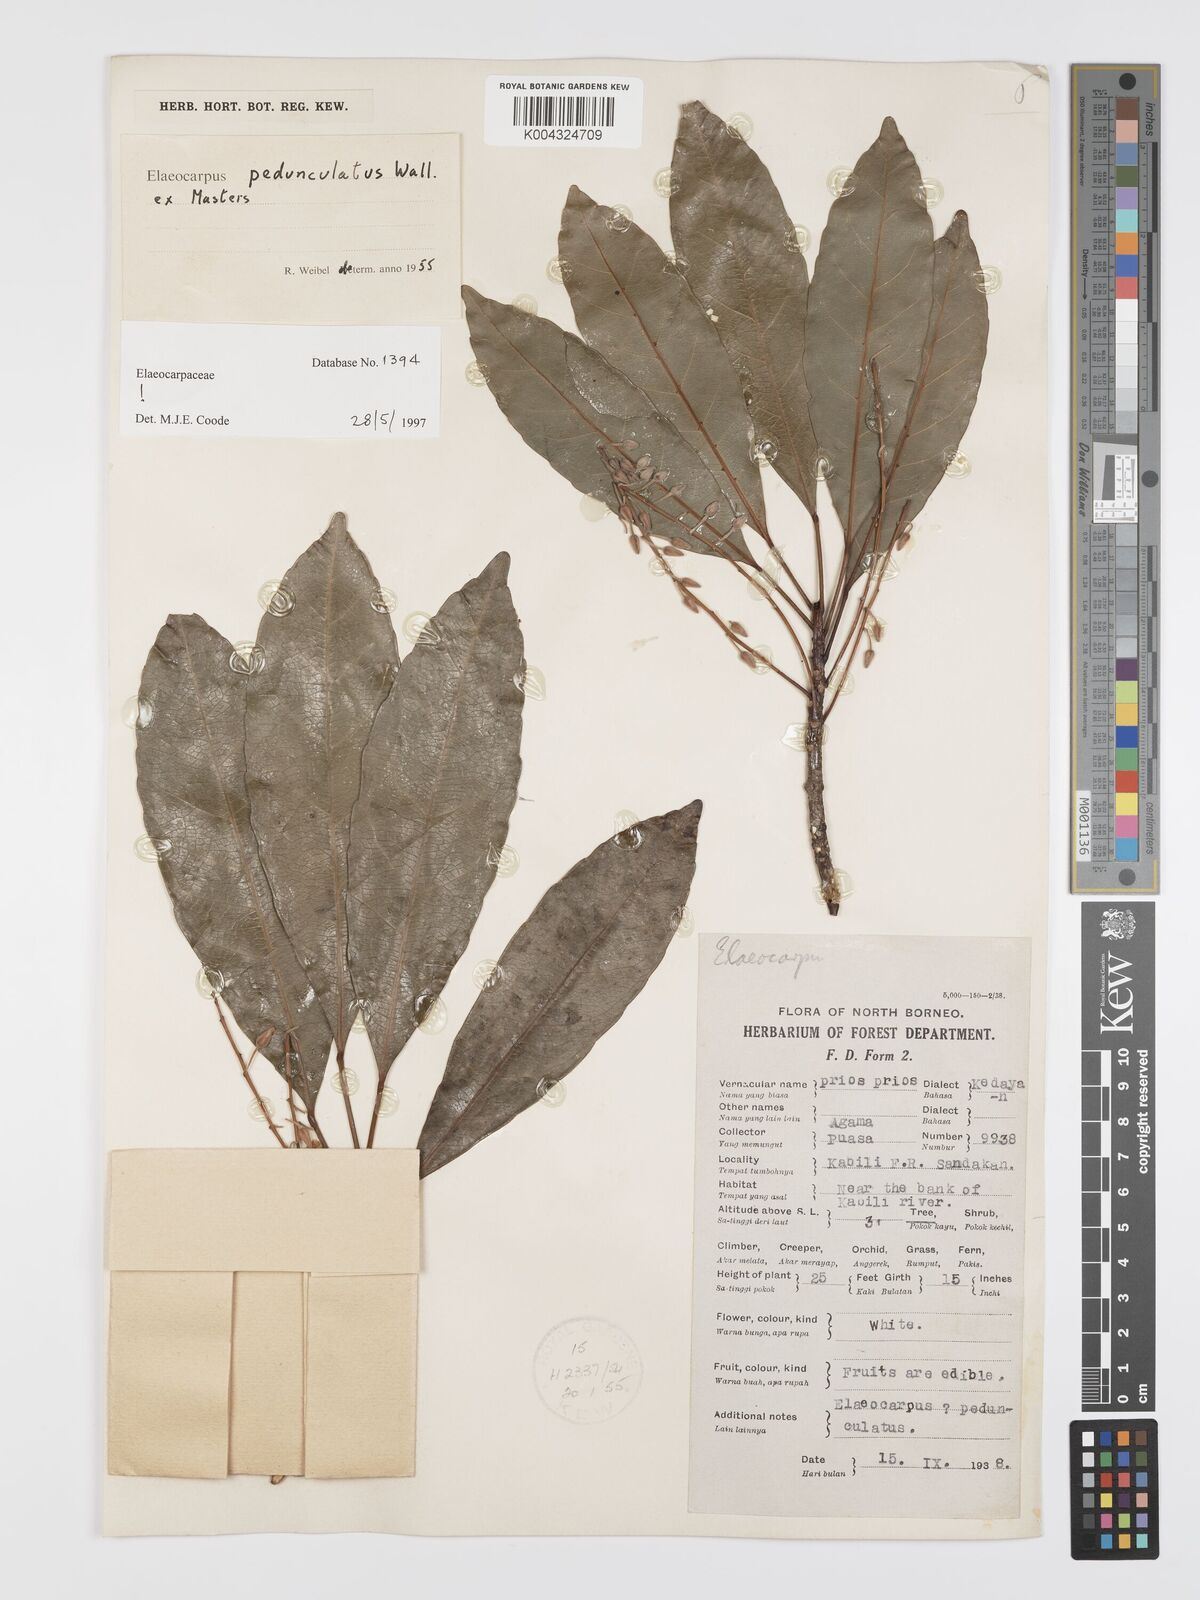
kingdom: Plantae
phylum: Tracheophyta
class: Magnoliopsida
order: Oxalidales
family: Elaeocarpaceae
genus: Elaeocarpus
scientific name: Elaeocarpus pedunculatus
